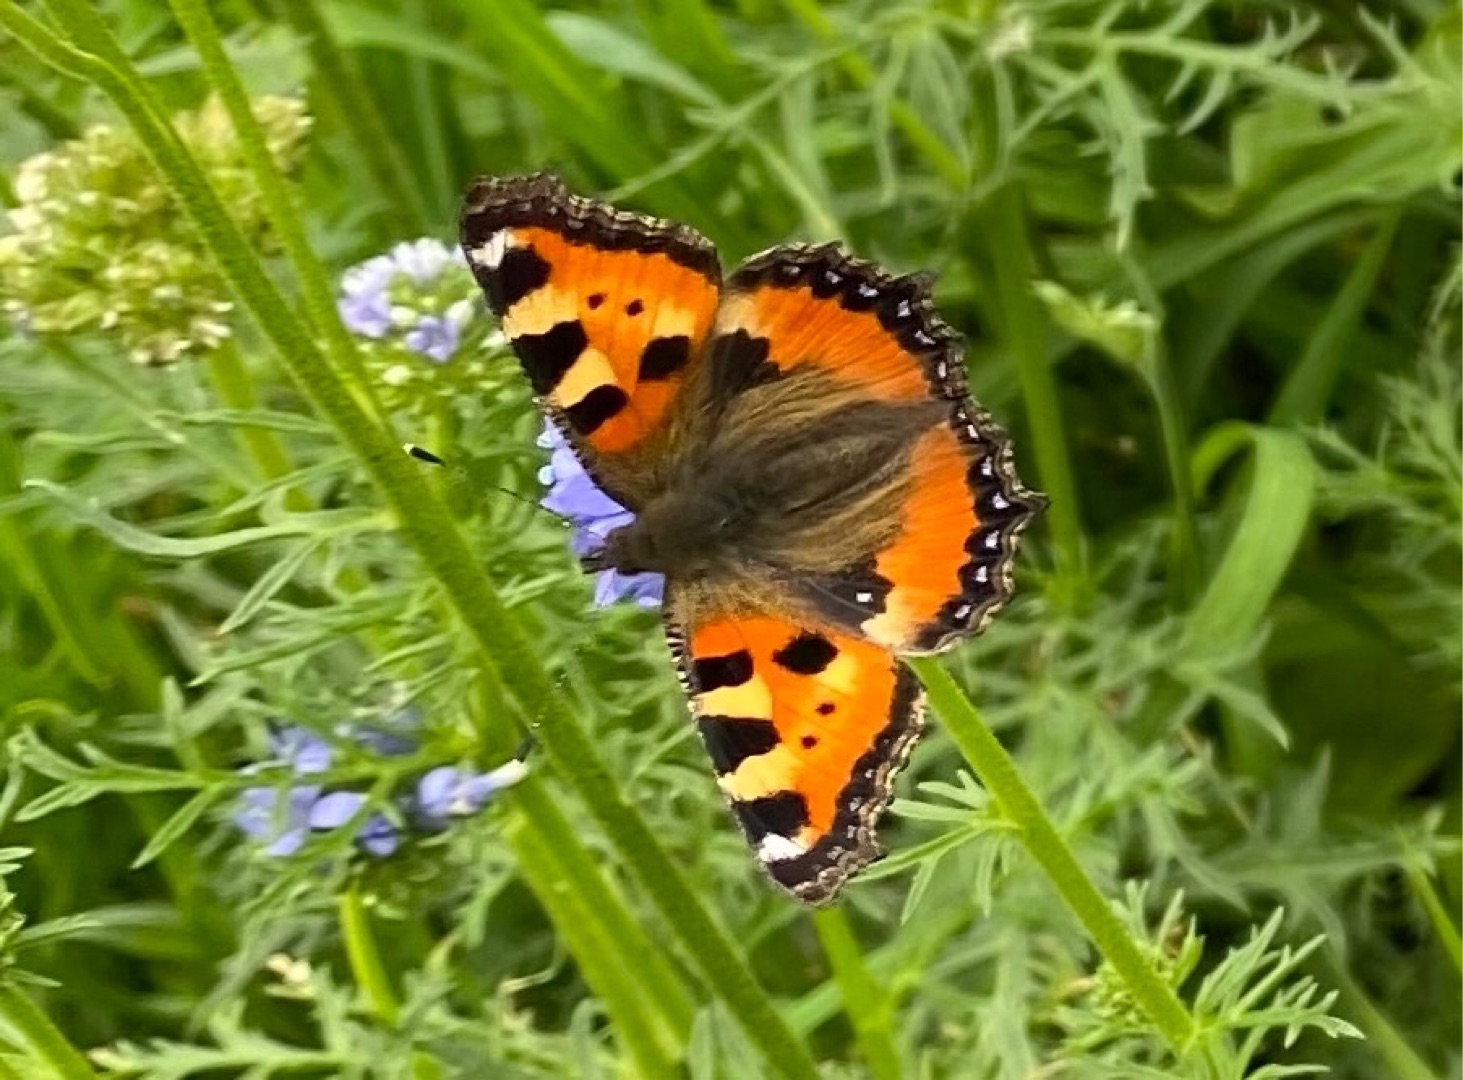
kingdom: Animalia
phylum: Arthropoda
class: Insecta
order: Lepidoptera
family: Nymphalidae
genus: Aglais
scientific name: Aglais urticae
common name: Nældens takvinge
